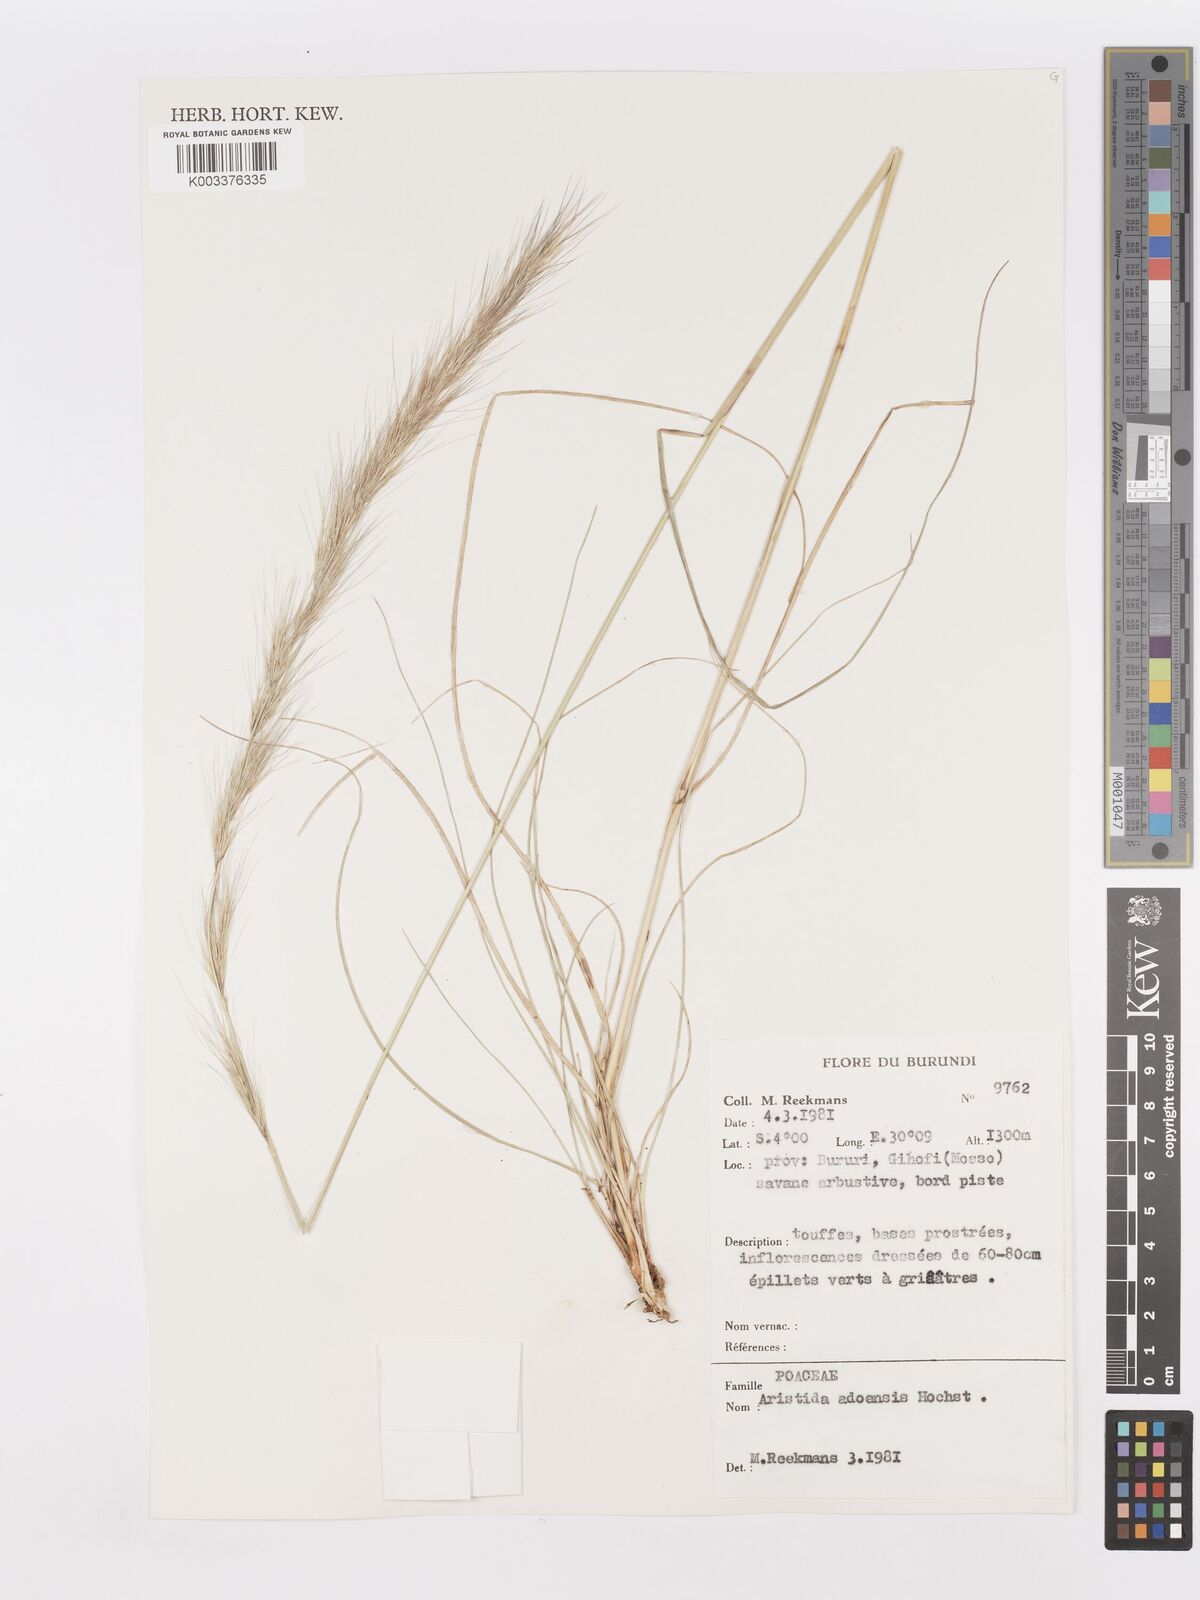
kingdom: Plantae
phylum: Tracheophyta
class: Liliopsida
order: Poales
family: Poaceae
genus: Aristida
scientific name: Aristida adoensis
